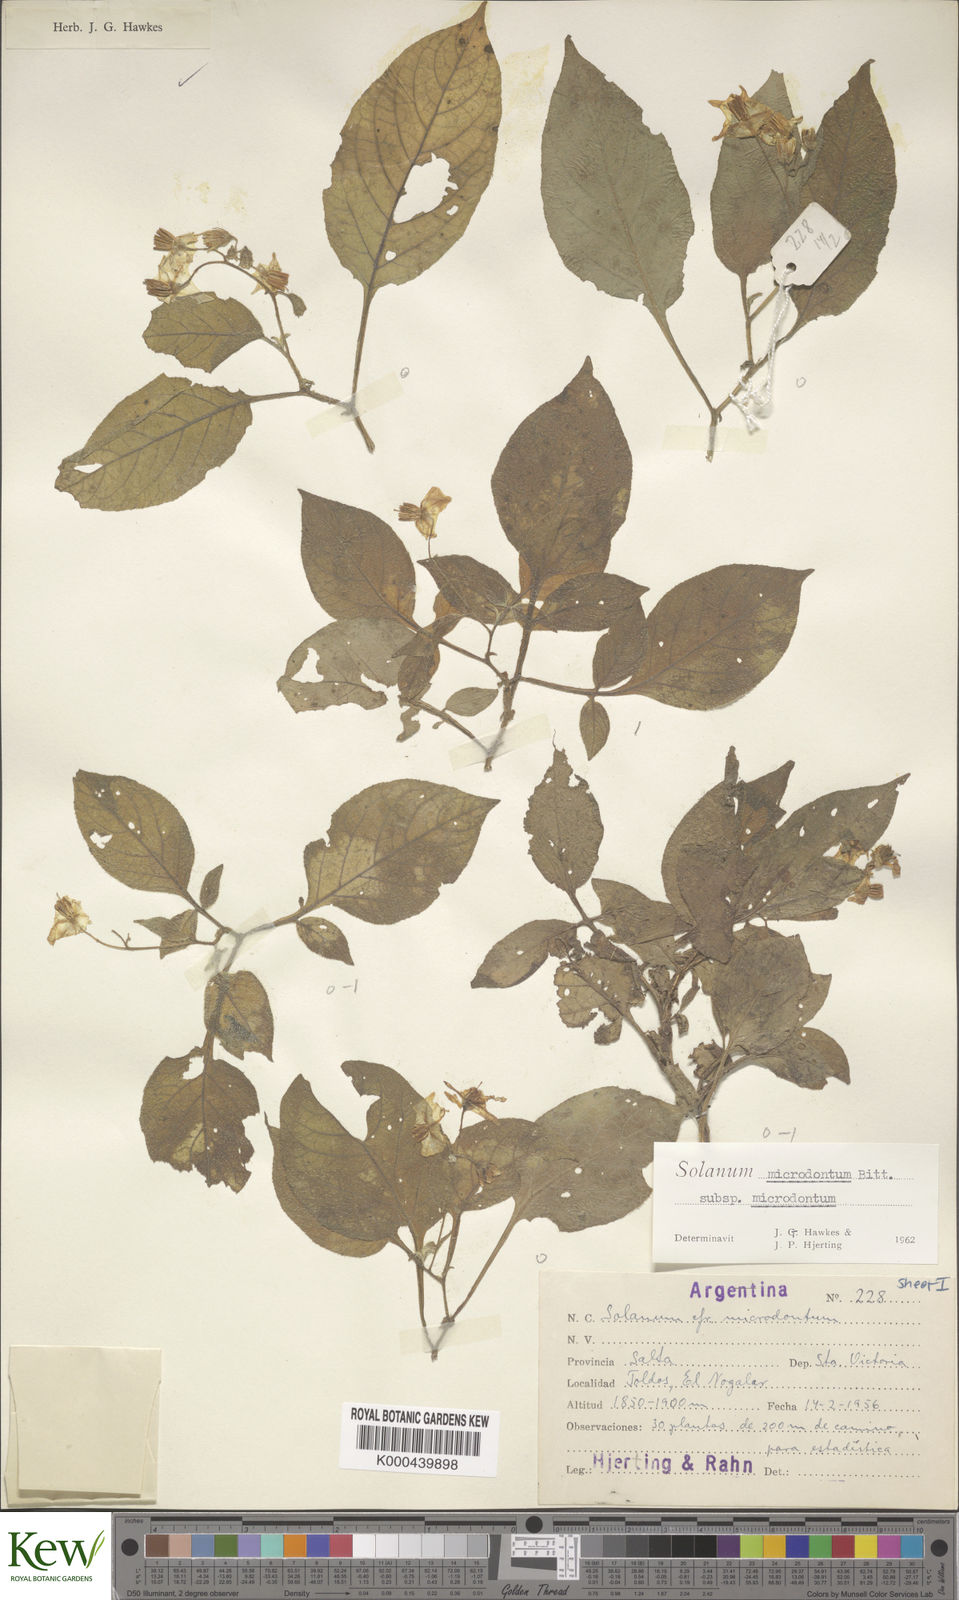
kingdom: Plantae
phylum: Tracheophyta
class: Magnoliopsida
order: Solanales
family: Solanaceae
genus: Solanum
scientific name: Solanum microdontum
